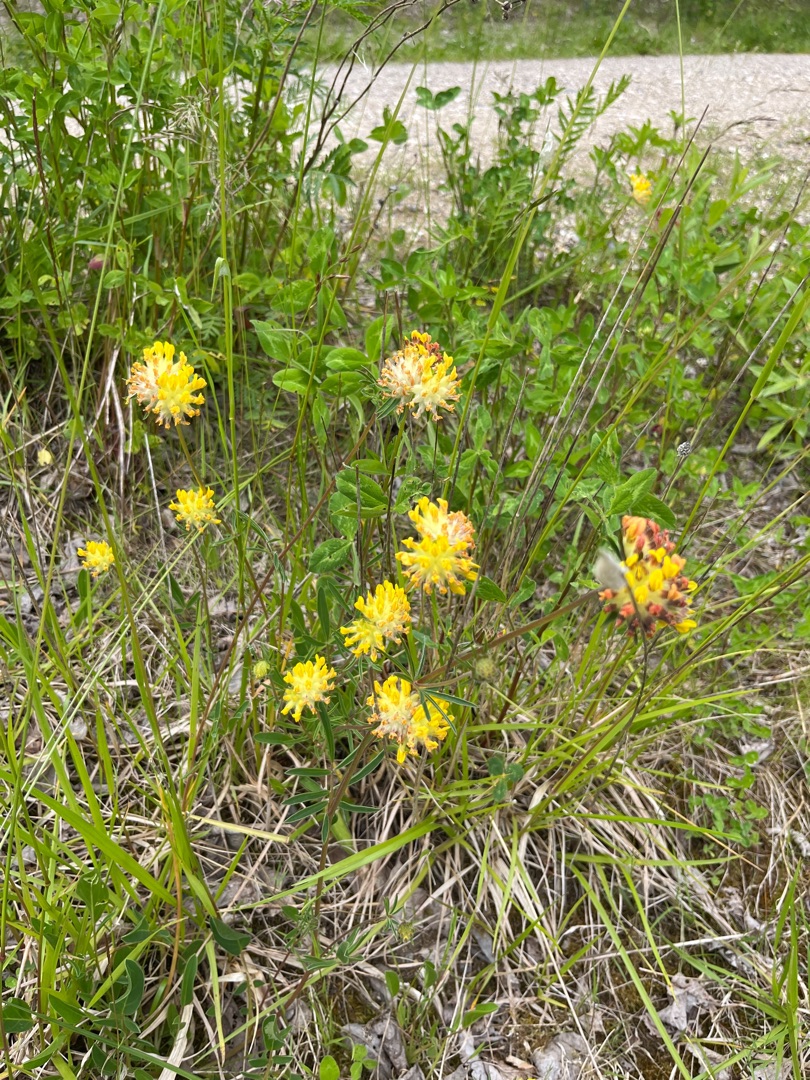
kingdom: Plantae
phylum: Tracheophyta
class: Magnoliopsida
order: Fabales
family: Fabaceae
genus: Anthyllis
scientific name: Anthyllis vulneraria
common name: Rundbælg
